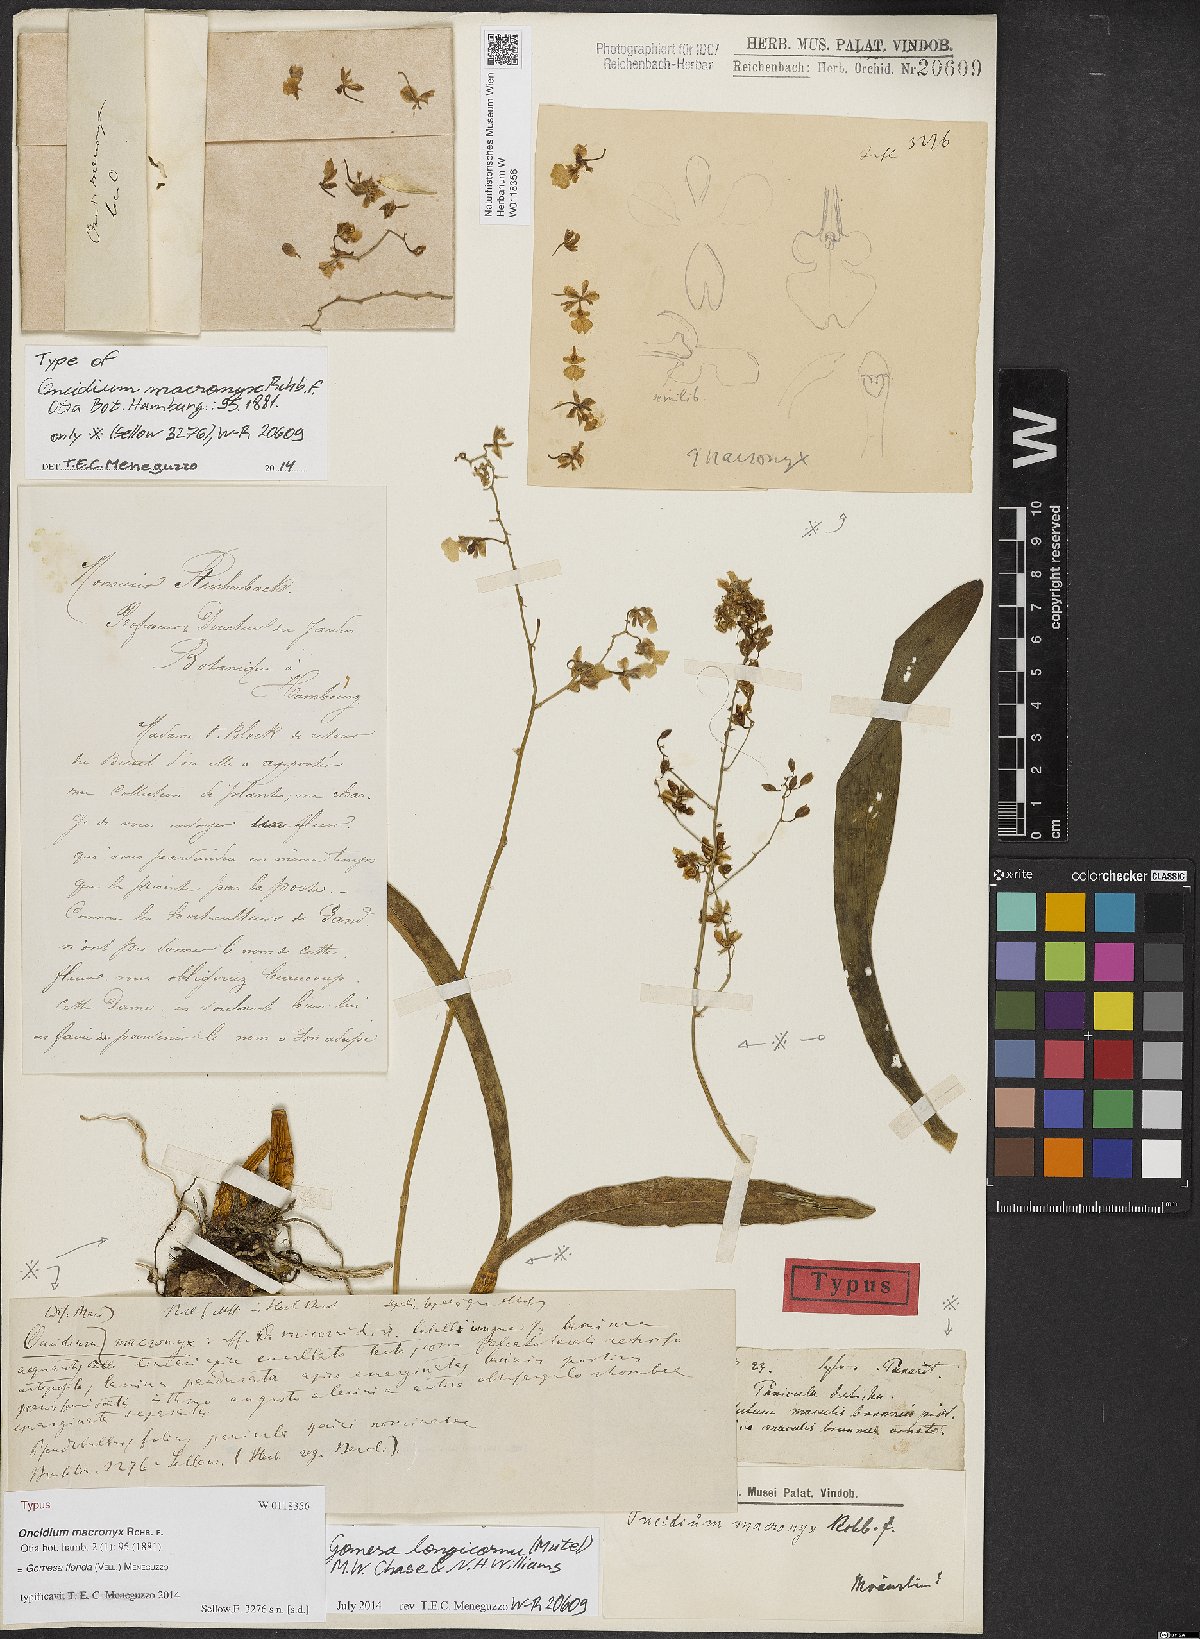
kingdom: Plantae
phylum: Tracheophyta
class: Liliopsida
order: Asparagales
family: Orchidaceae
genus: Gomesa
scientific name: Gomesa florida
